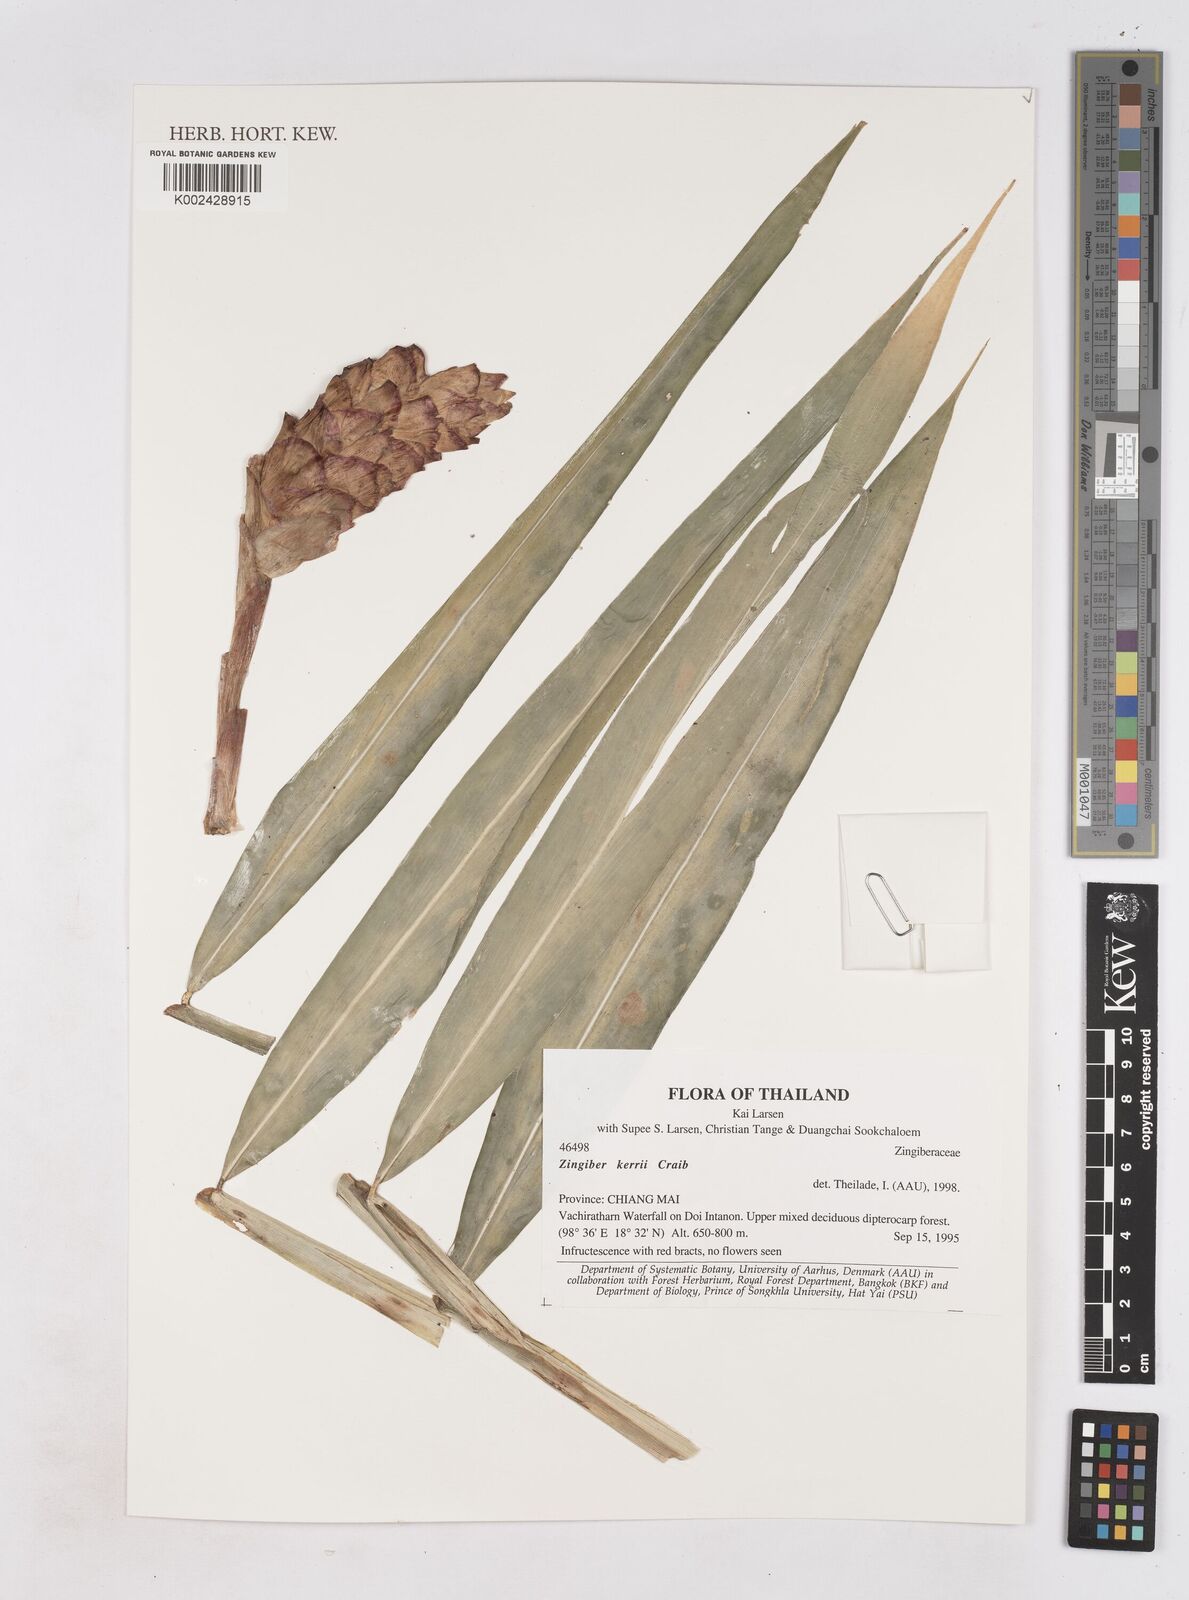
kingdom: Plantae
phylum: Tracheophyta
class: Liliopsida
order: Zingiberales
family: Zingiberaceae
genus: Zingiber
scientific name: Zingiber kerrii
